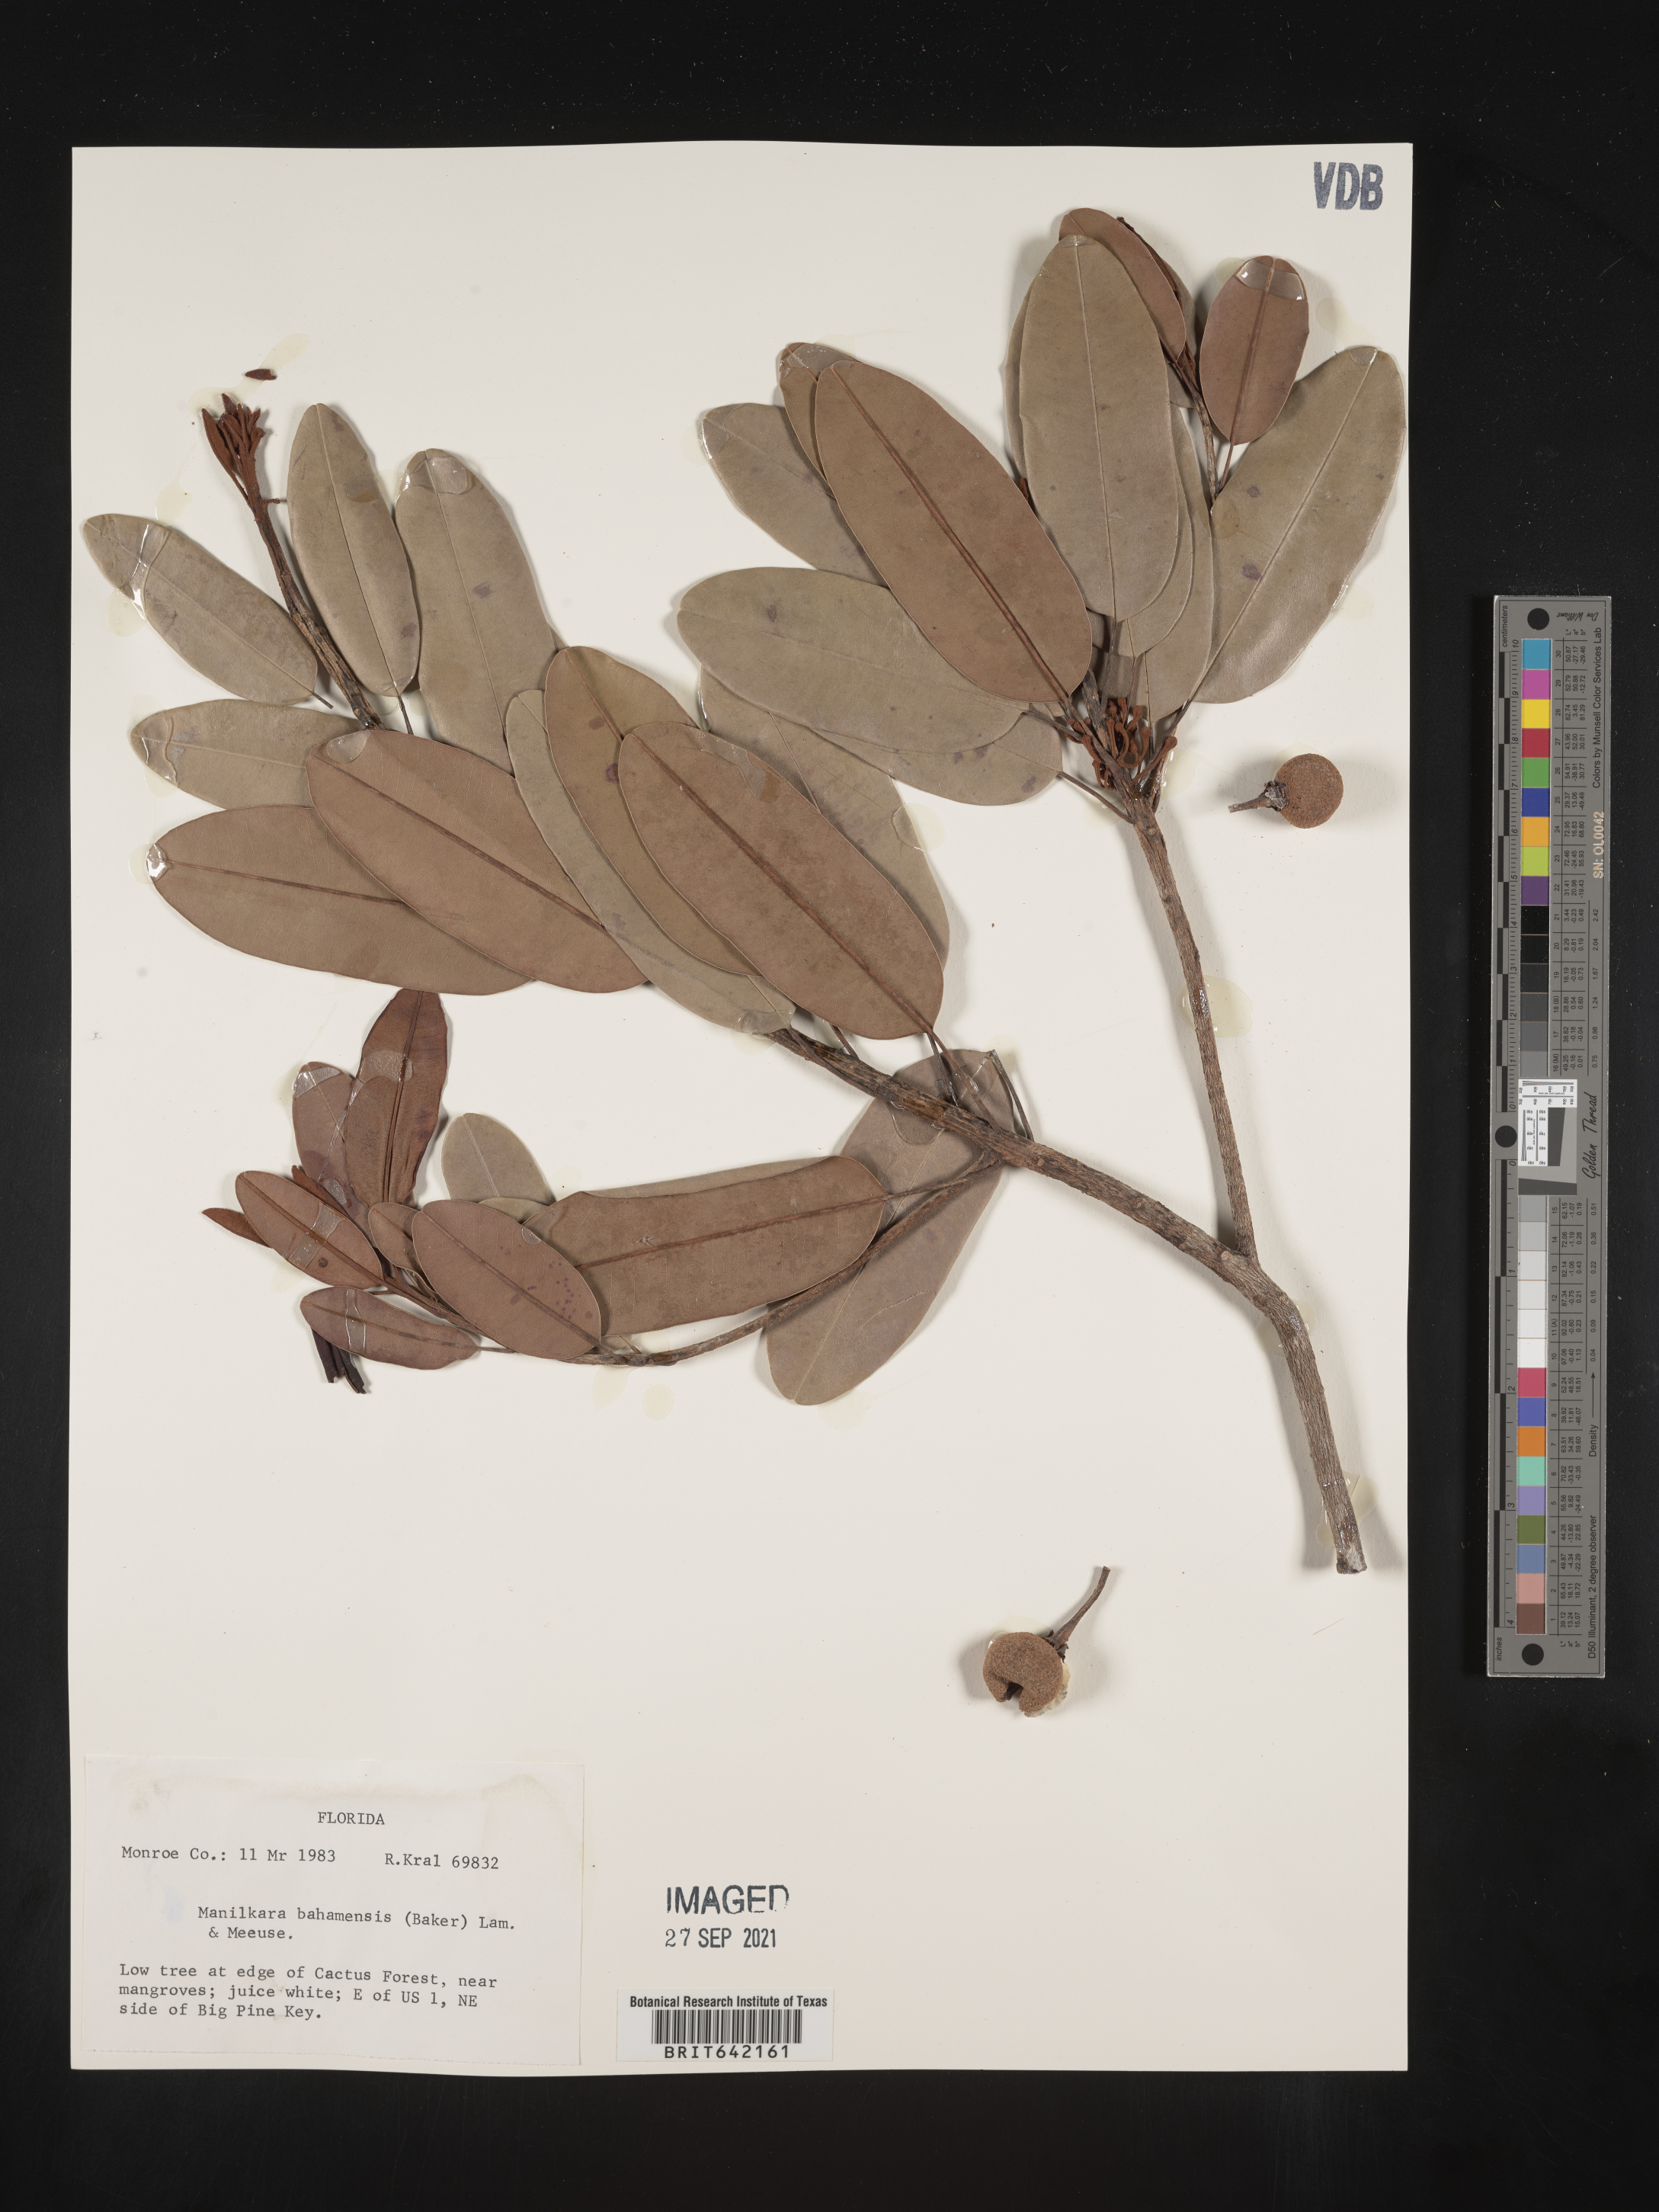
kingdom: Plantae
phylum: Tracheophyta
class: Magnoliopsida
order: Ericales
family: Sapotaceae
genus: Manilkara
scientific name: Manilkara jaimiqui
